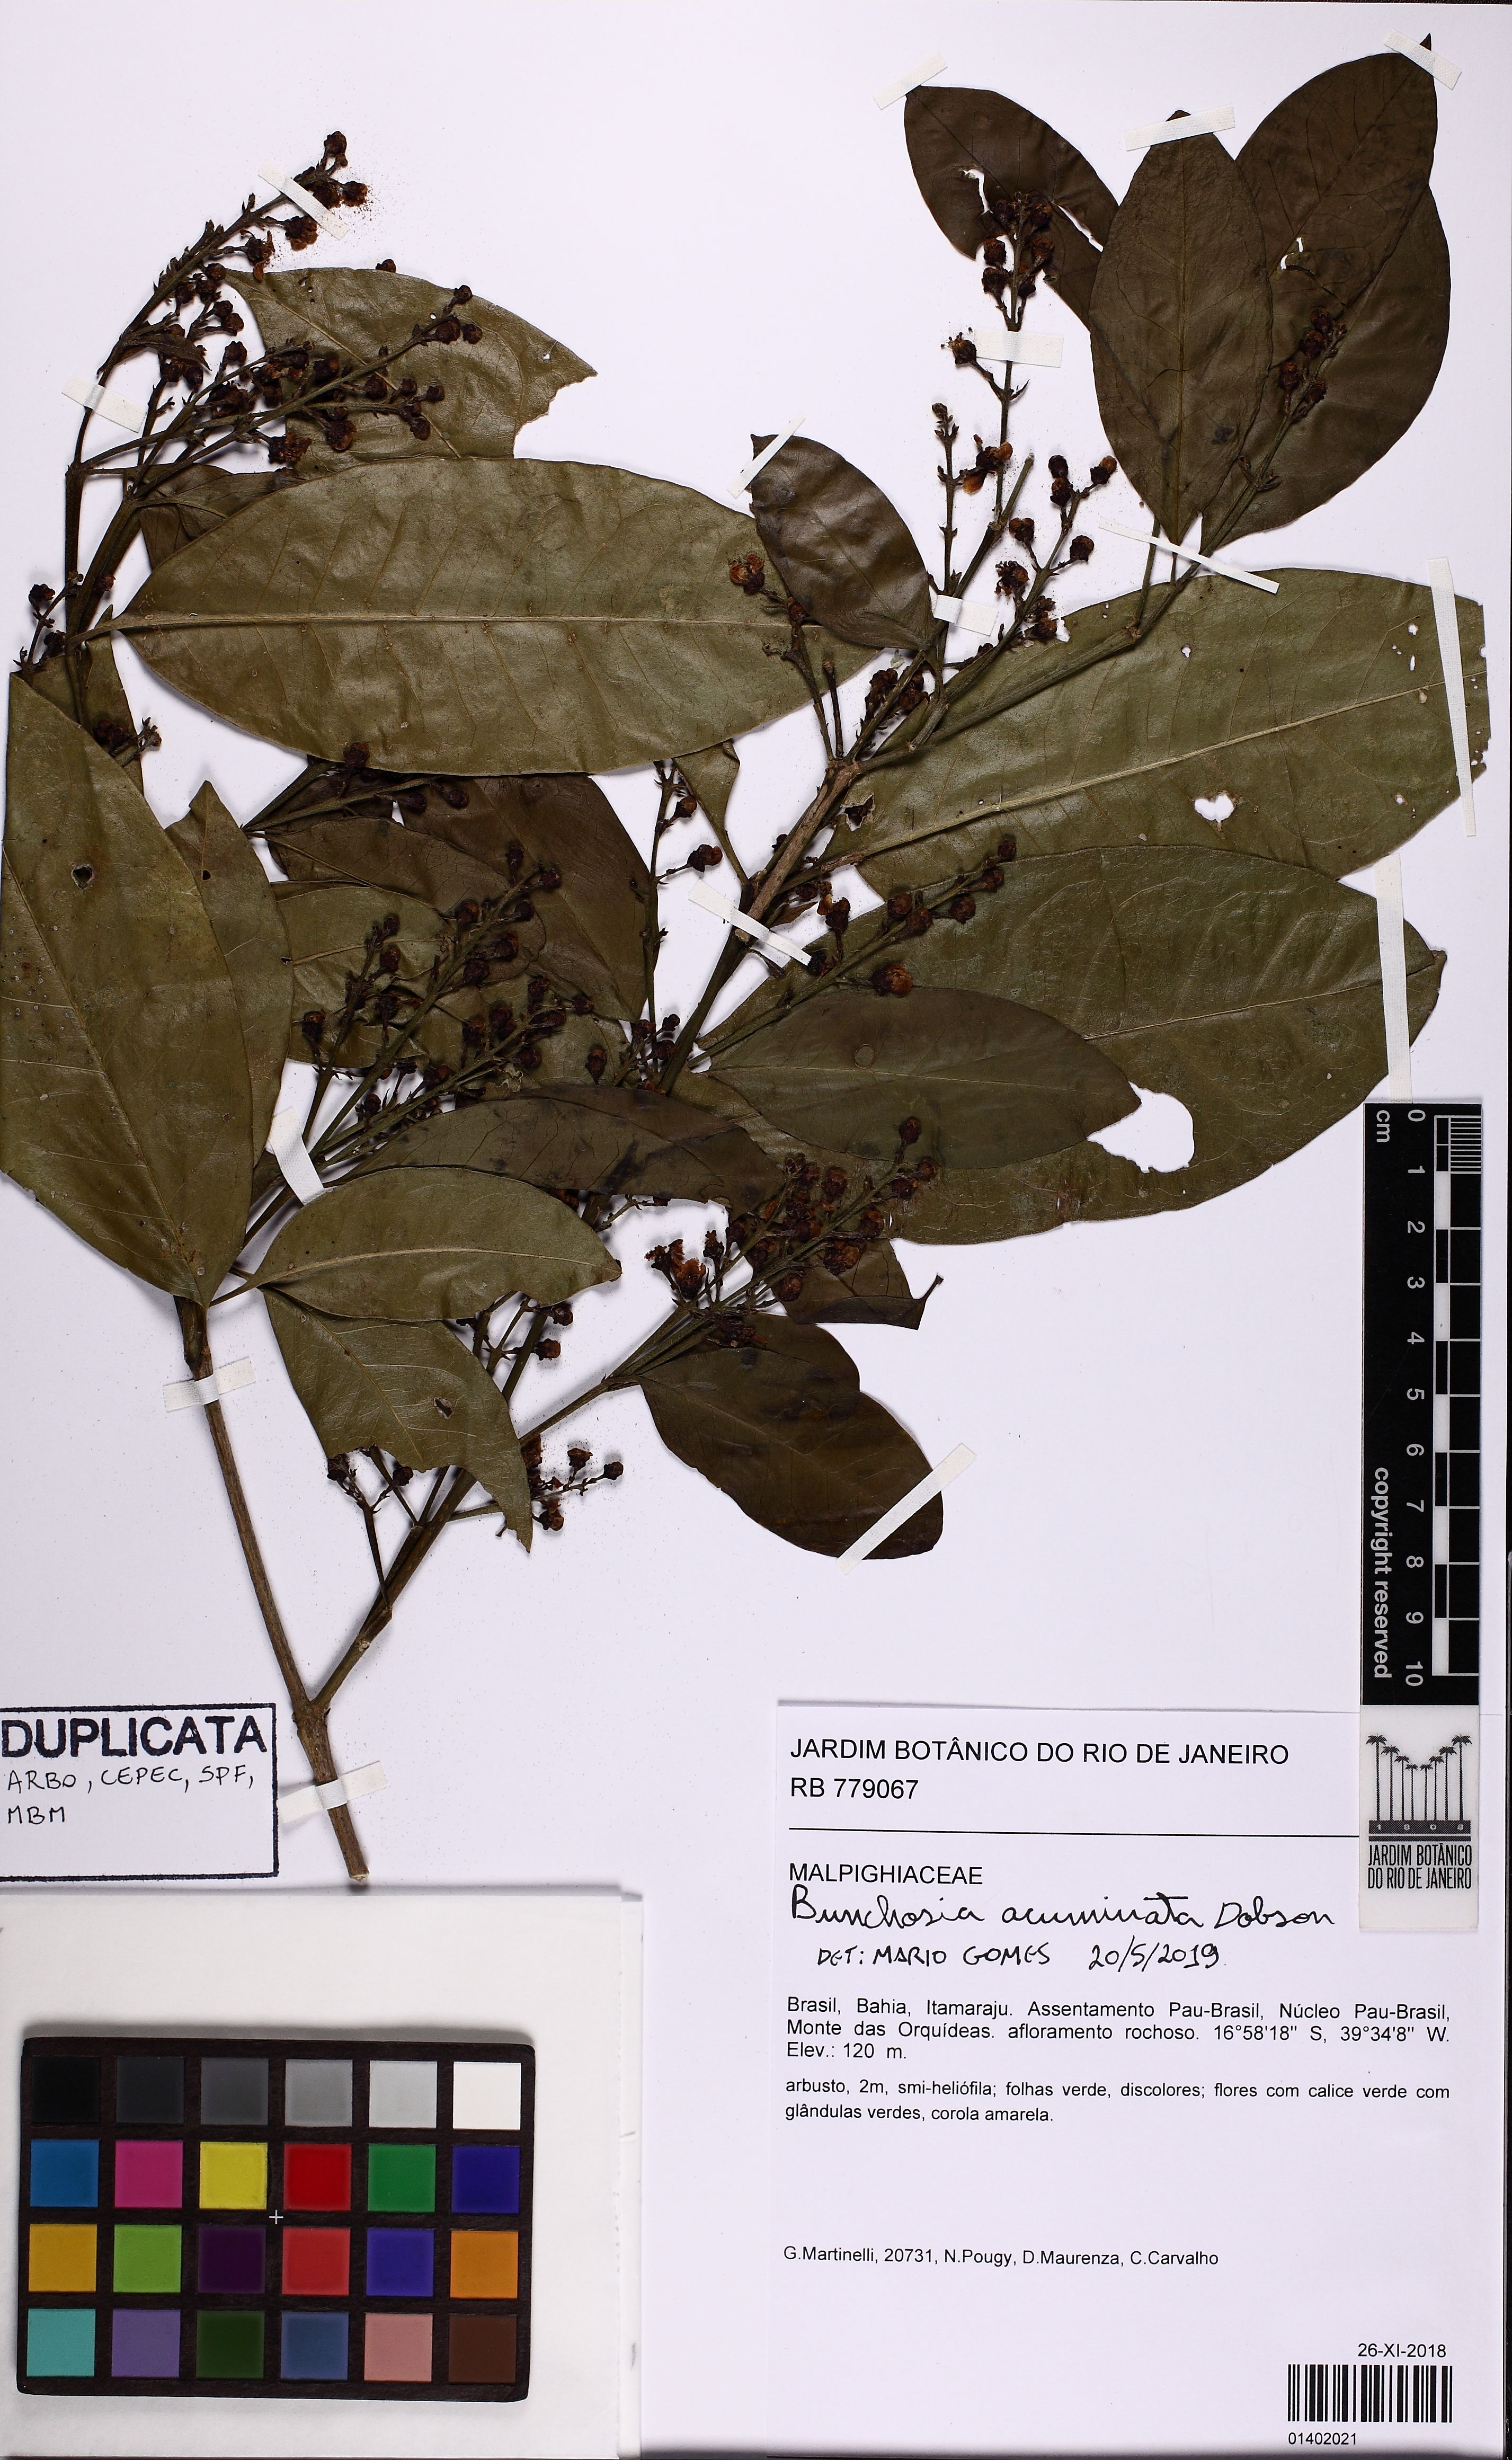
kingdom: Plantae
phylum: Tracheophyta
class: Magnoliopsida
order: Malpighiales
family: Malpighiaceae
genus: Bunchosia
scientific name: Bunchosia acuminata
